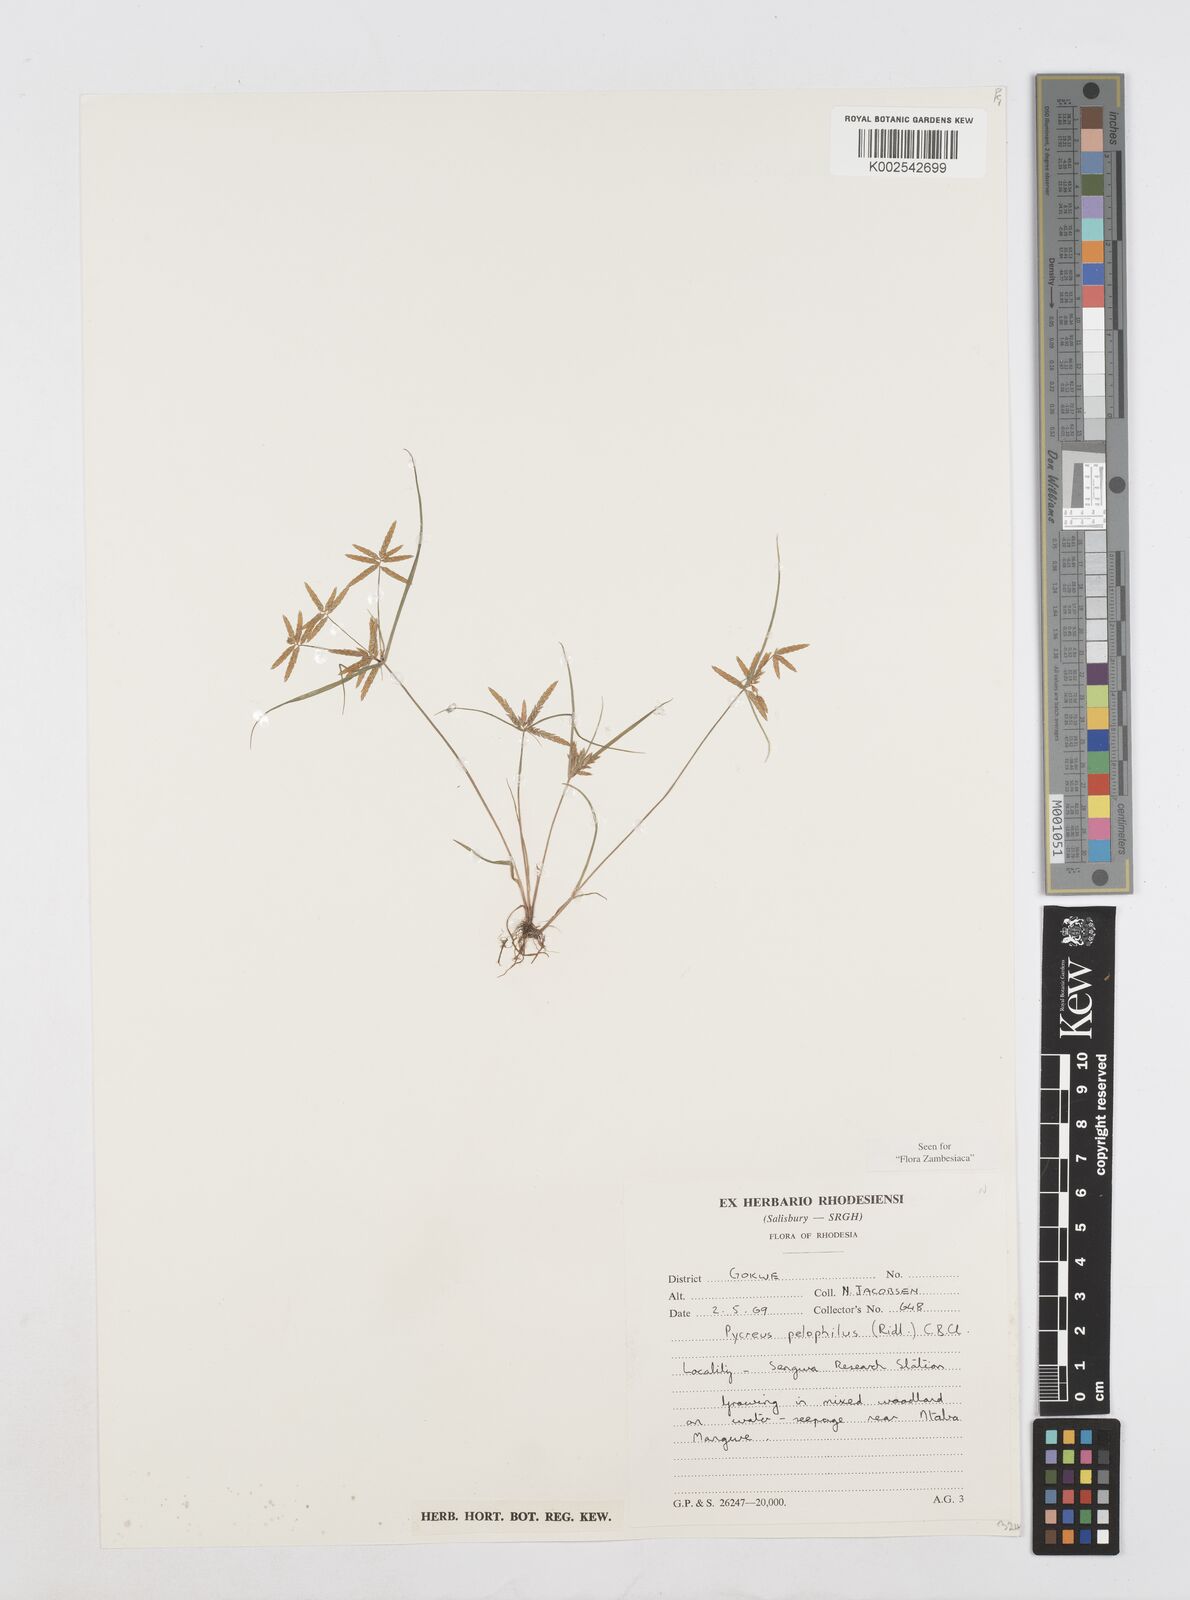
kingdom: Plantae
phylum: Tracheophyta
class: Liliopsida
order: Poales
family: Cyperaceae
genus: Cyperus
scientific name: Cyperus pelophilus
